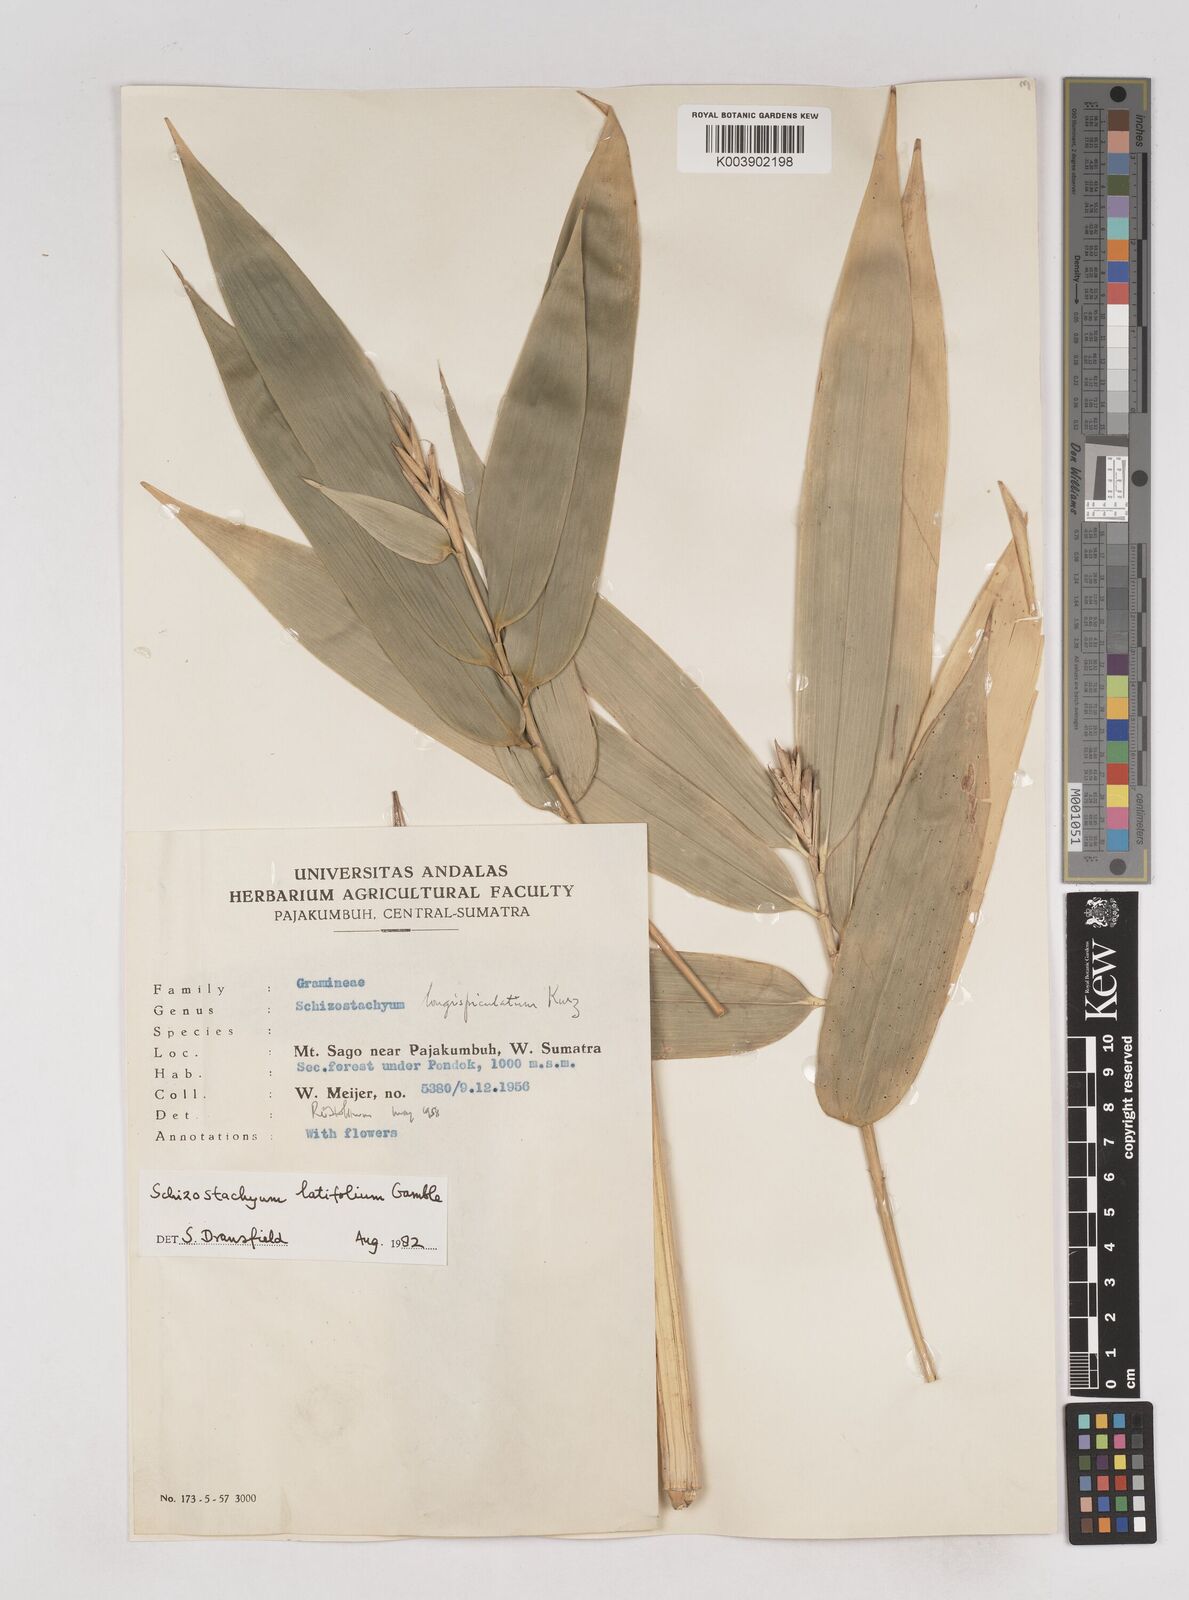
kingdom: Plantae
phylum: Tracheophyta
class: Liliopsida
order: Poales
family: Poaceae
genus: Schizostachyum
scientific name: Schizostachyum latifolium
